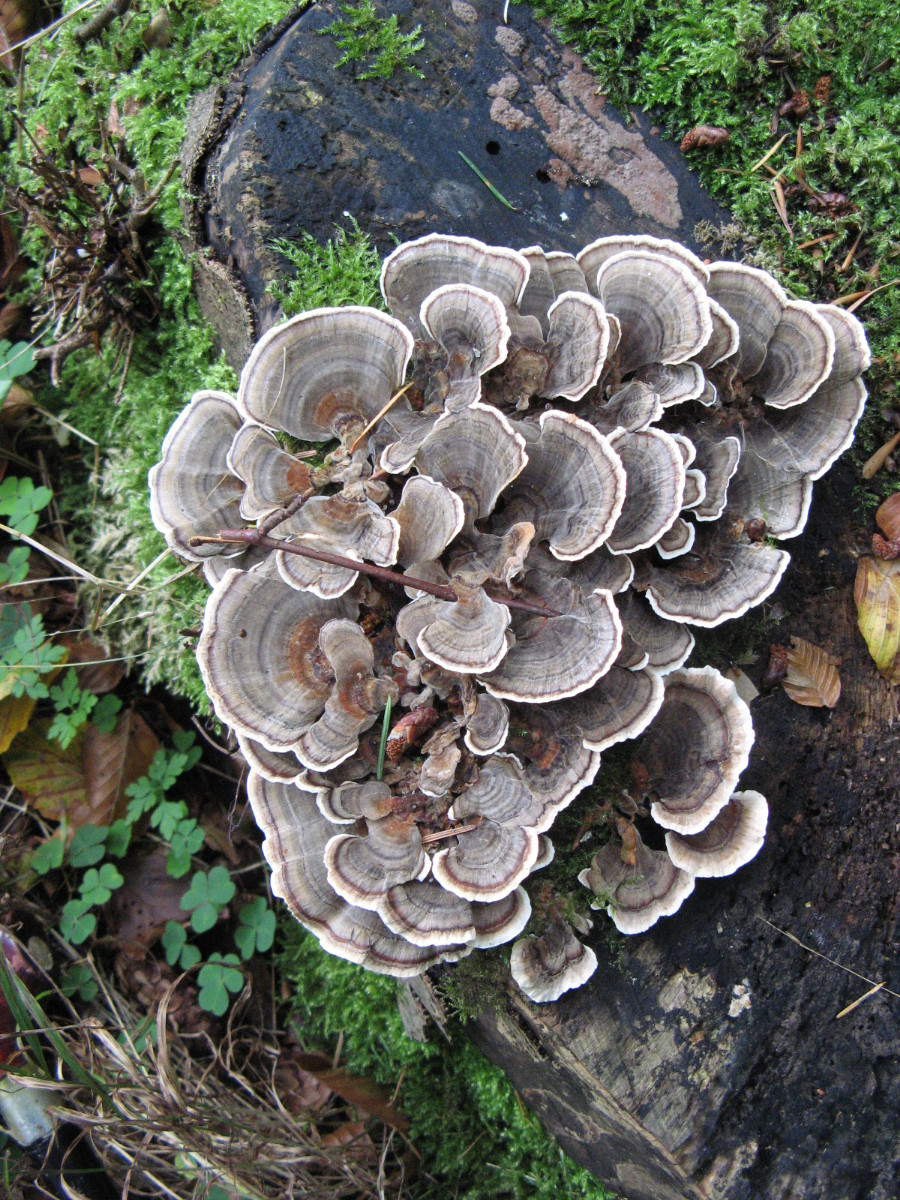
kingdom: Fungi
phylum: Basidiomycota
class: Agaricomycetes
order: Polyporales
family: Polyporaceae
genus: Trametes
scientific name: Trametes versicolor
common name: broget læderporesvamp
